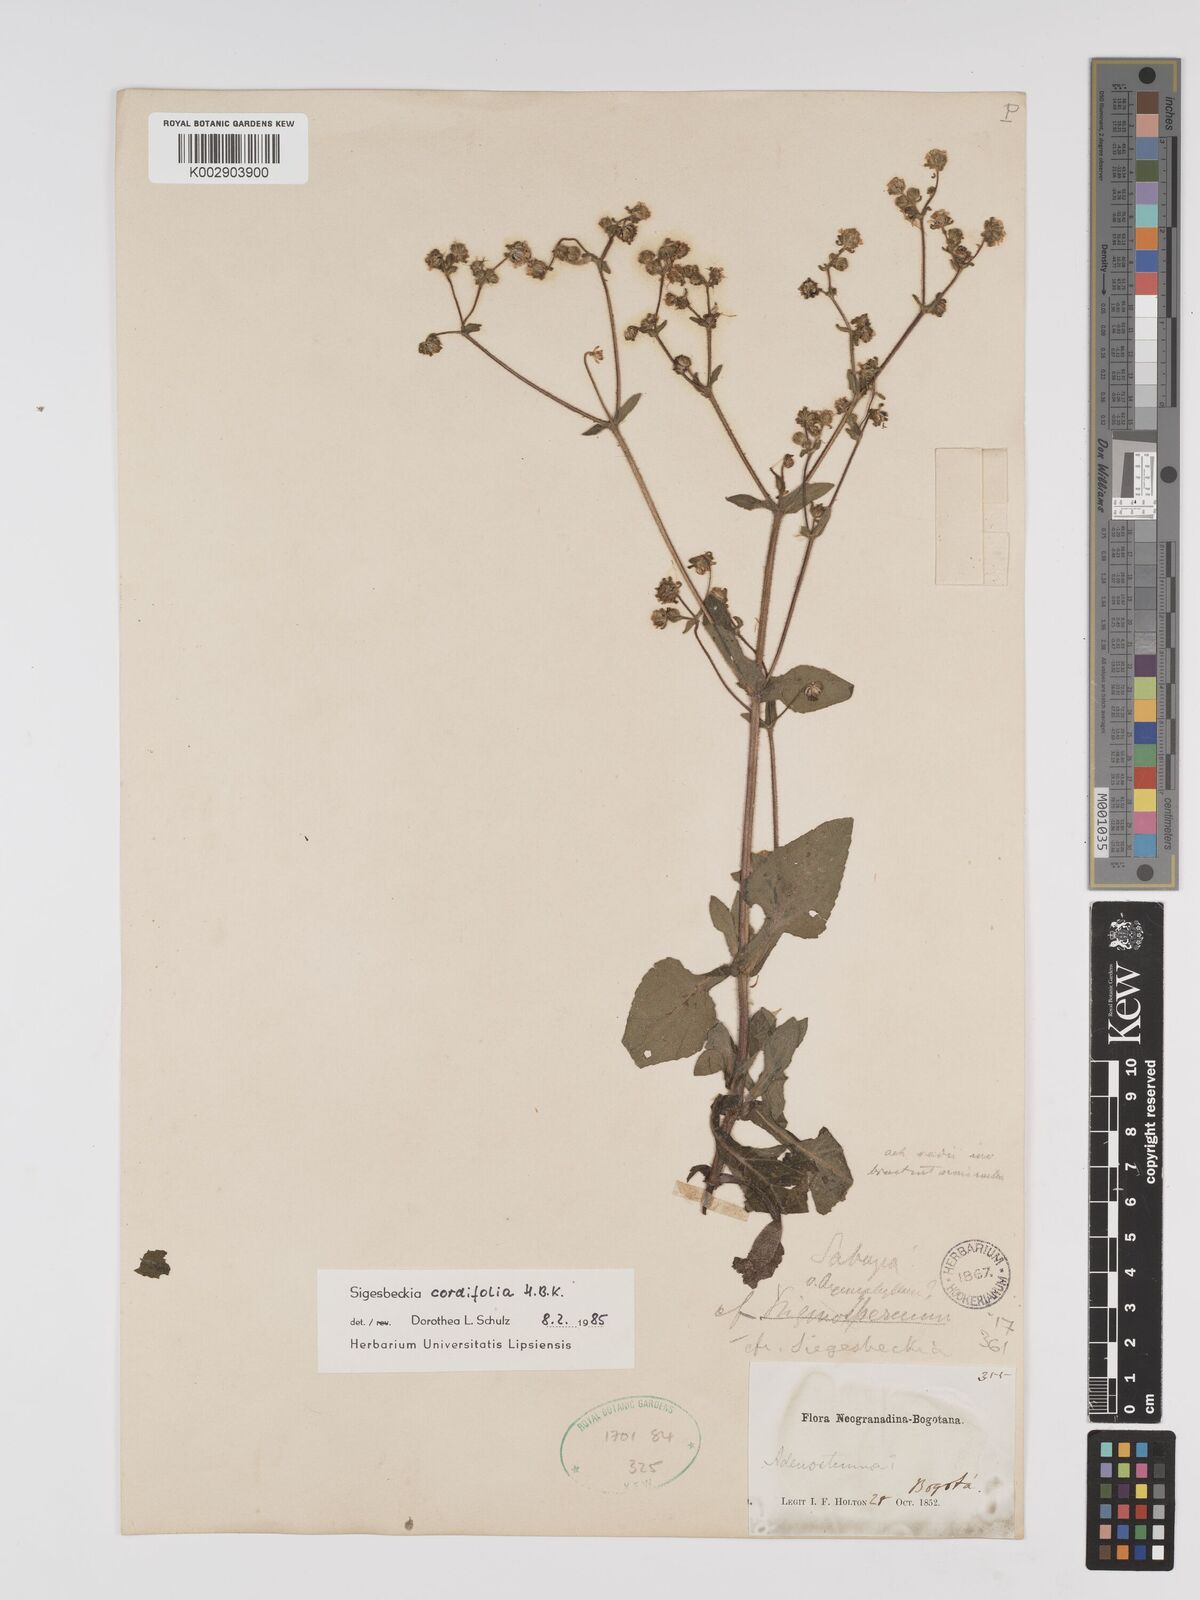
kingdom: Plantae
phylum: Tracheophyta
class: Magnoliopsida
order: Asterales
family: Asteraceae
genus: Sigesbeckia
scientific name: Sigesbeckia jorullensis
